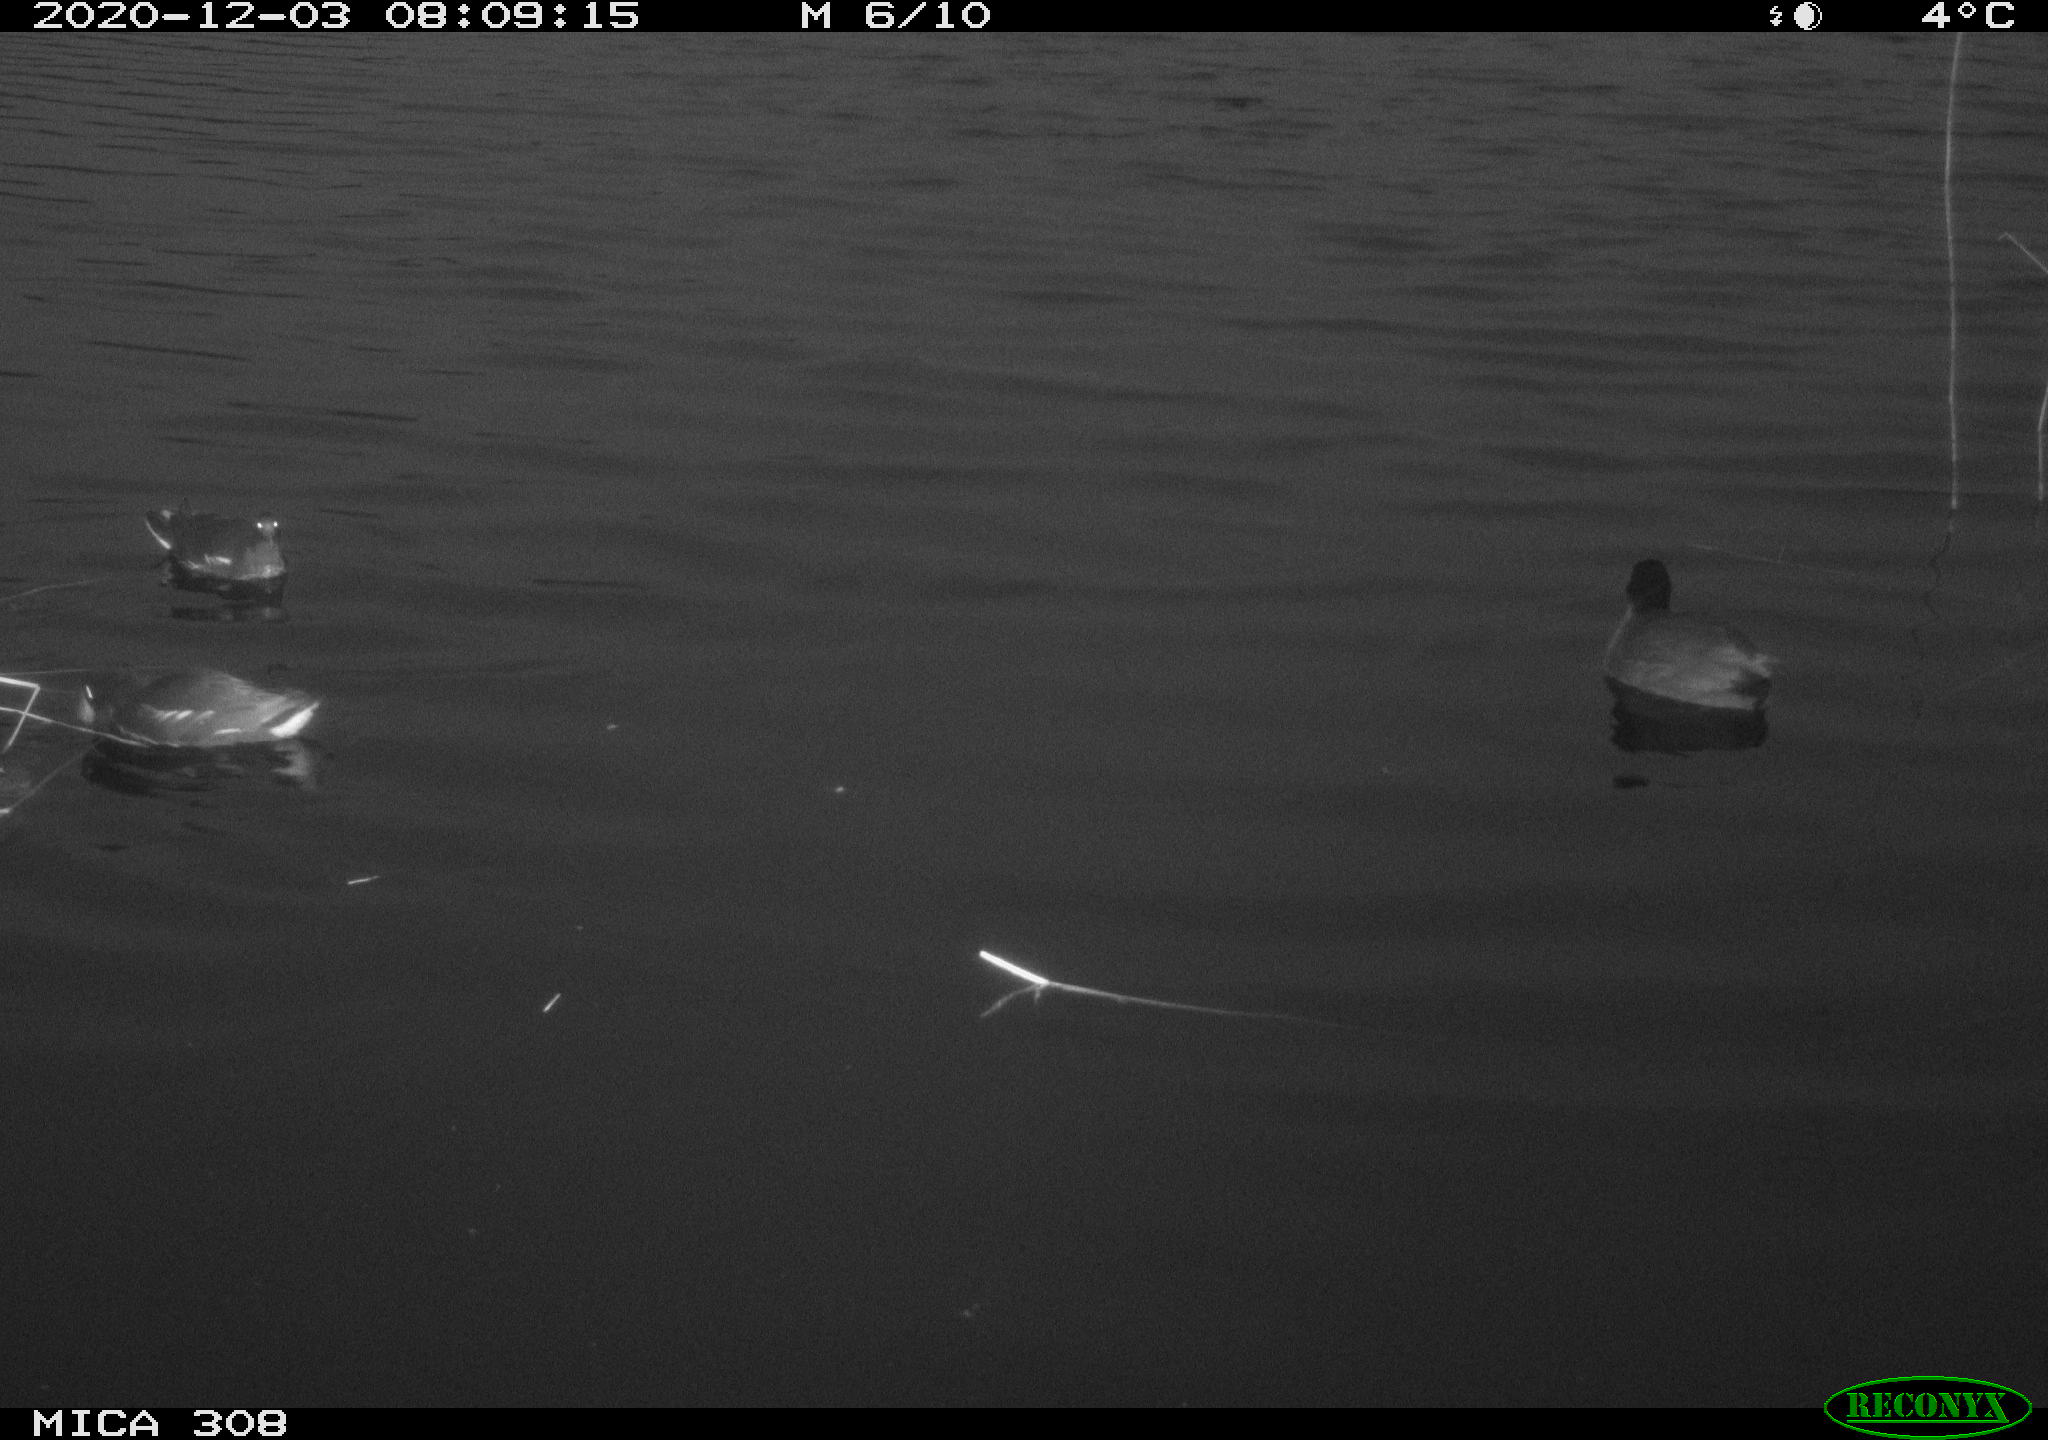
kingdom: Animalia
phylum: Chordata
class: Aves
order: Gruiformes
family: Rallidae
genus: Gallinula
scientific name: Gallinula chloropus
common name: Common moorhen
